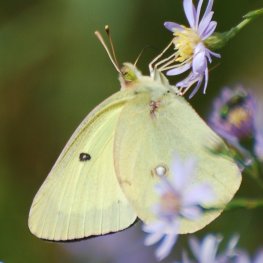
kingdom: Animalia
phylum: Arthropoda
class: Insecta
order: Lepidoptera
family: Pieridae
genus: Colias
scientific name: Colias philodice
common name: Clouded Sulphur
